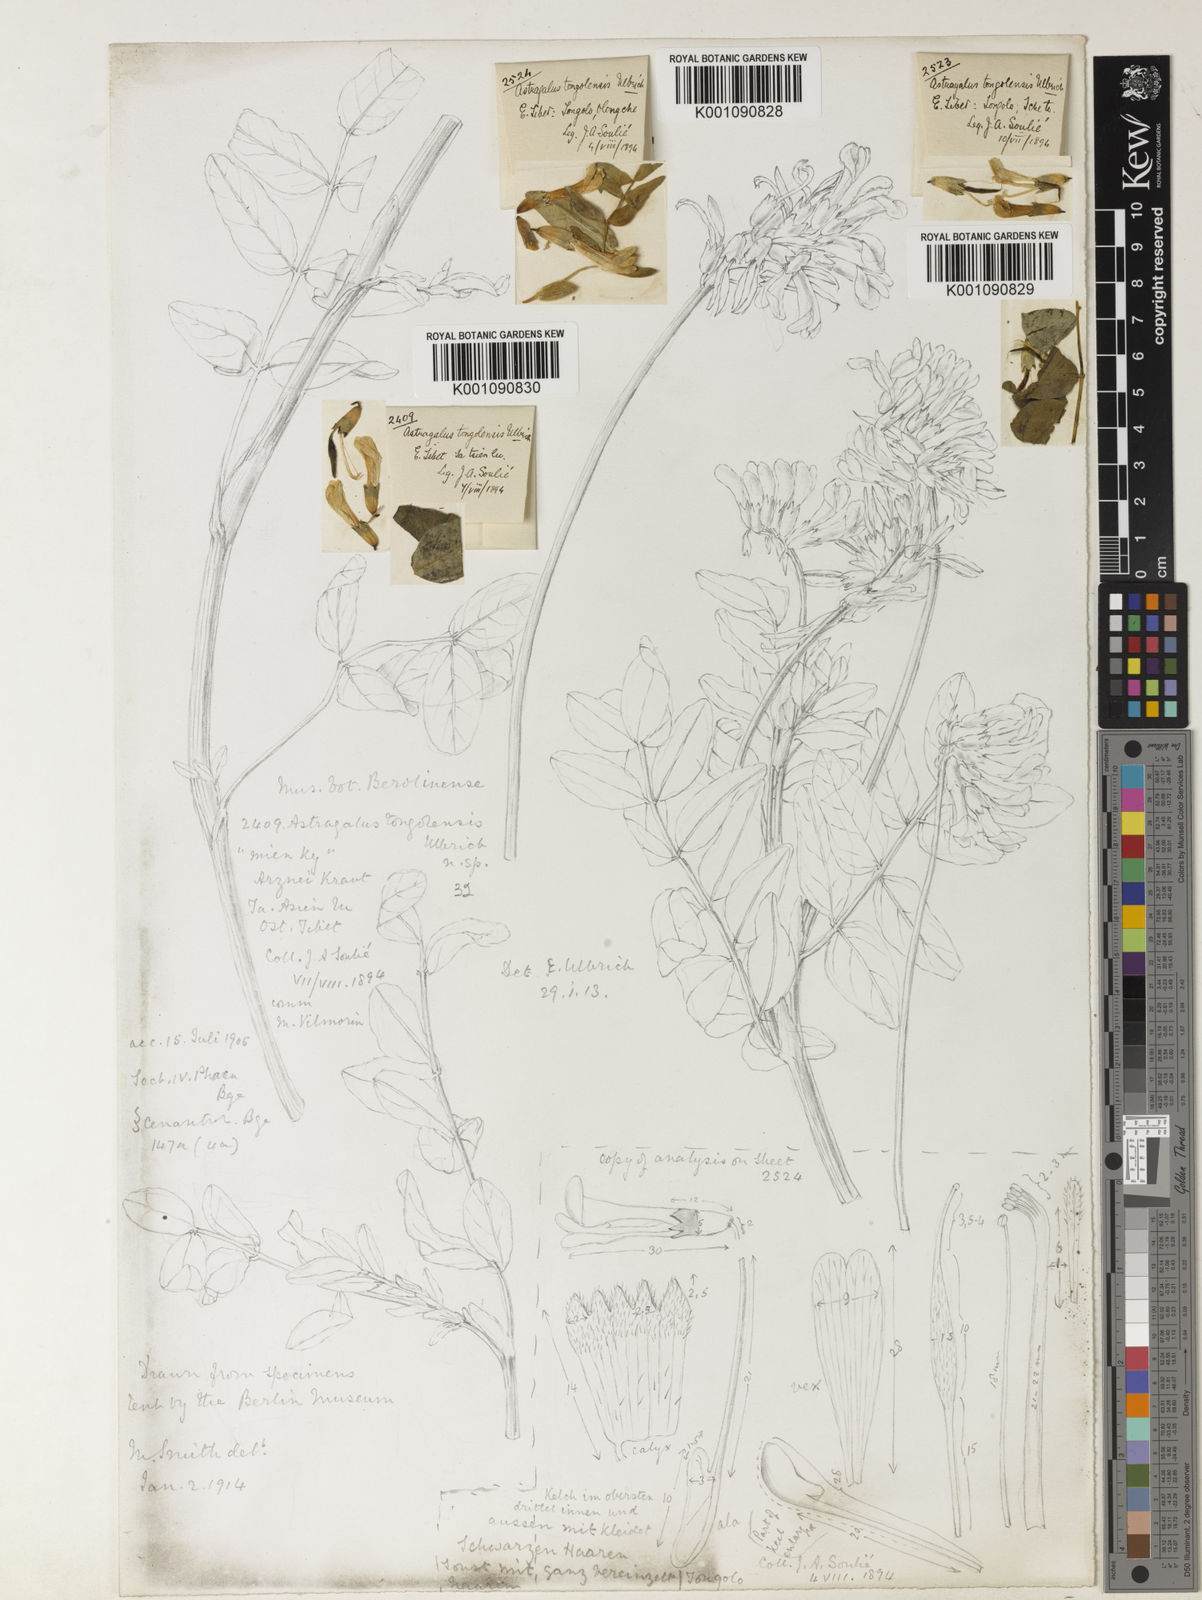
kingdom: Plantae
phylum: Tracheophyta
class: Magnoliopsida
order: Fabales
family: Fabaceae
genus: Astragalus
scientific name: Astragalus
